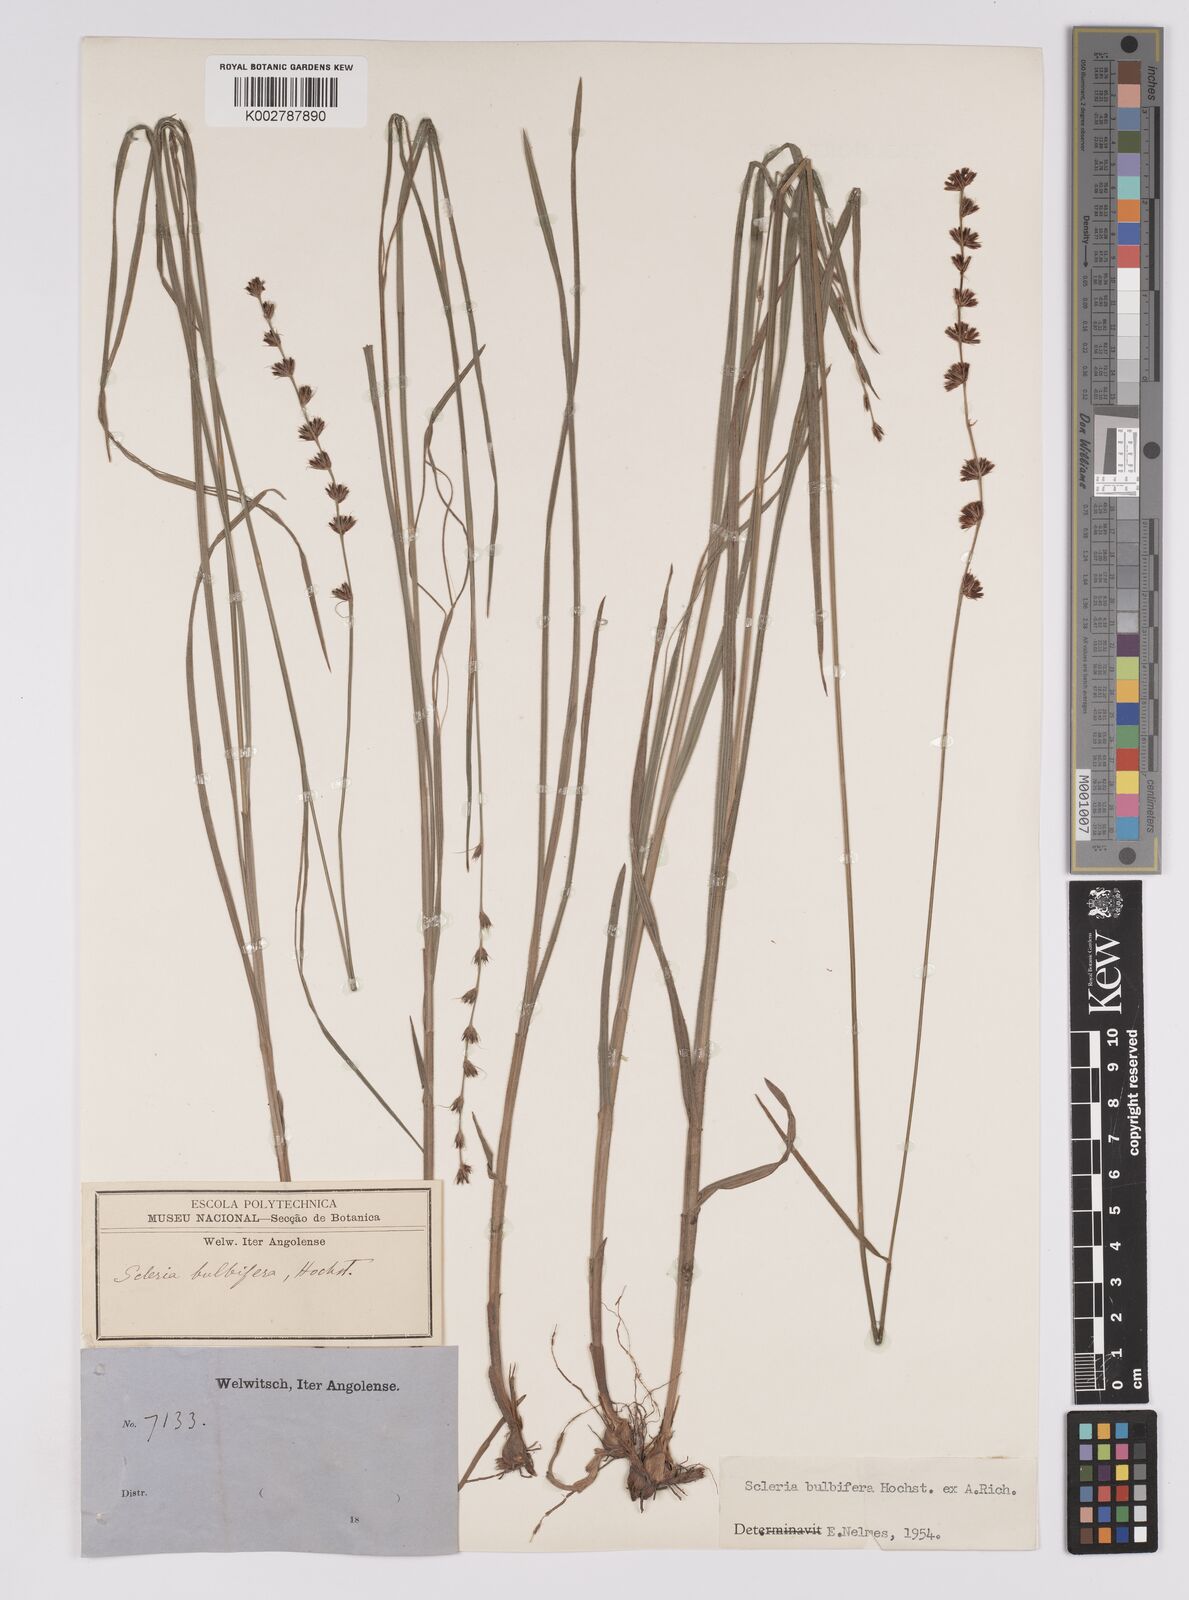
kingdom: Plantae
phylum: Tracheophyta
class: Liliopsida
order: Poales
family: Cyperaceae
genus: Scleria
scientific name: Scleria bulbifera
